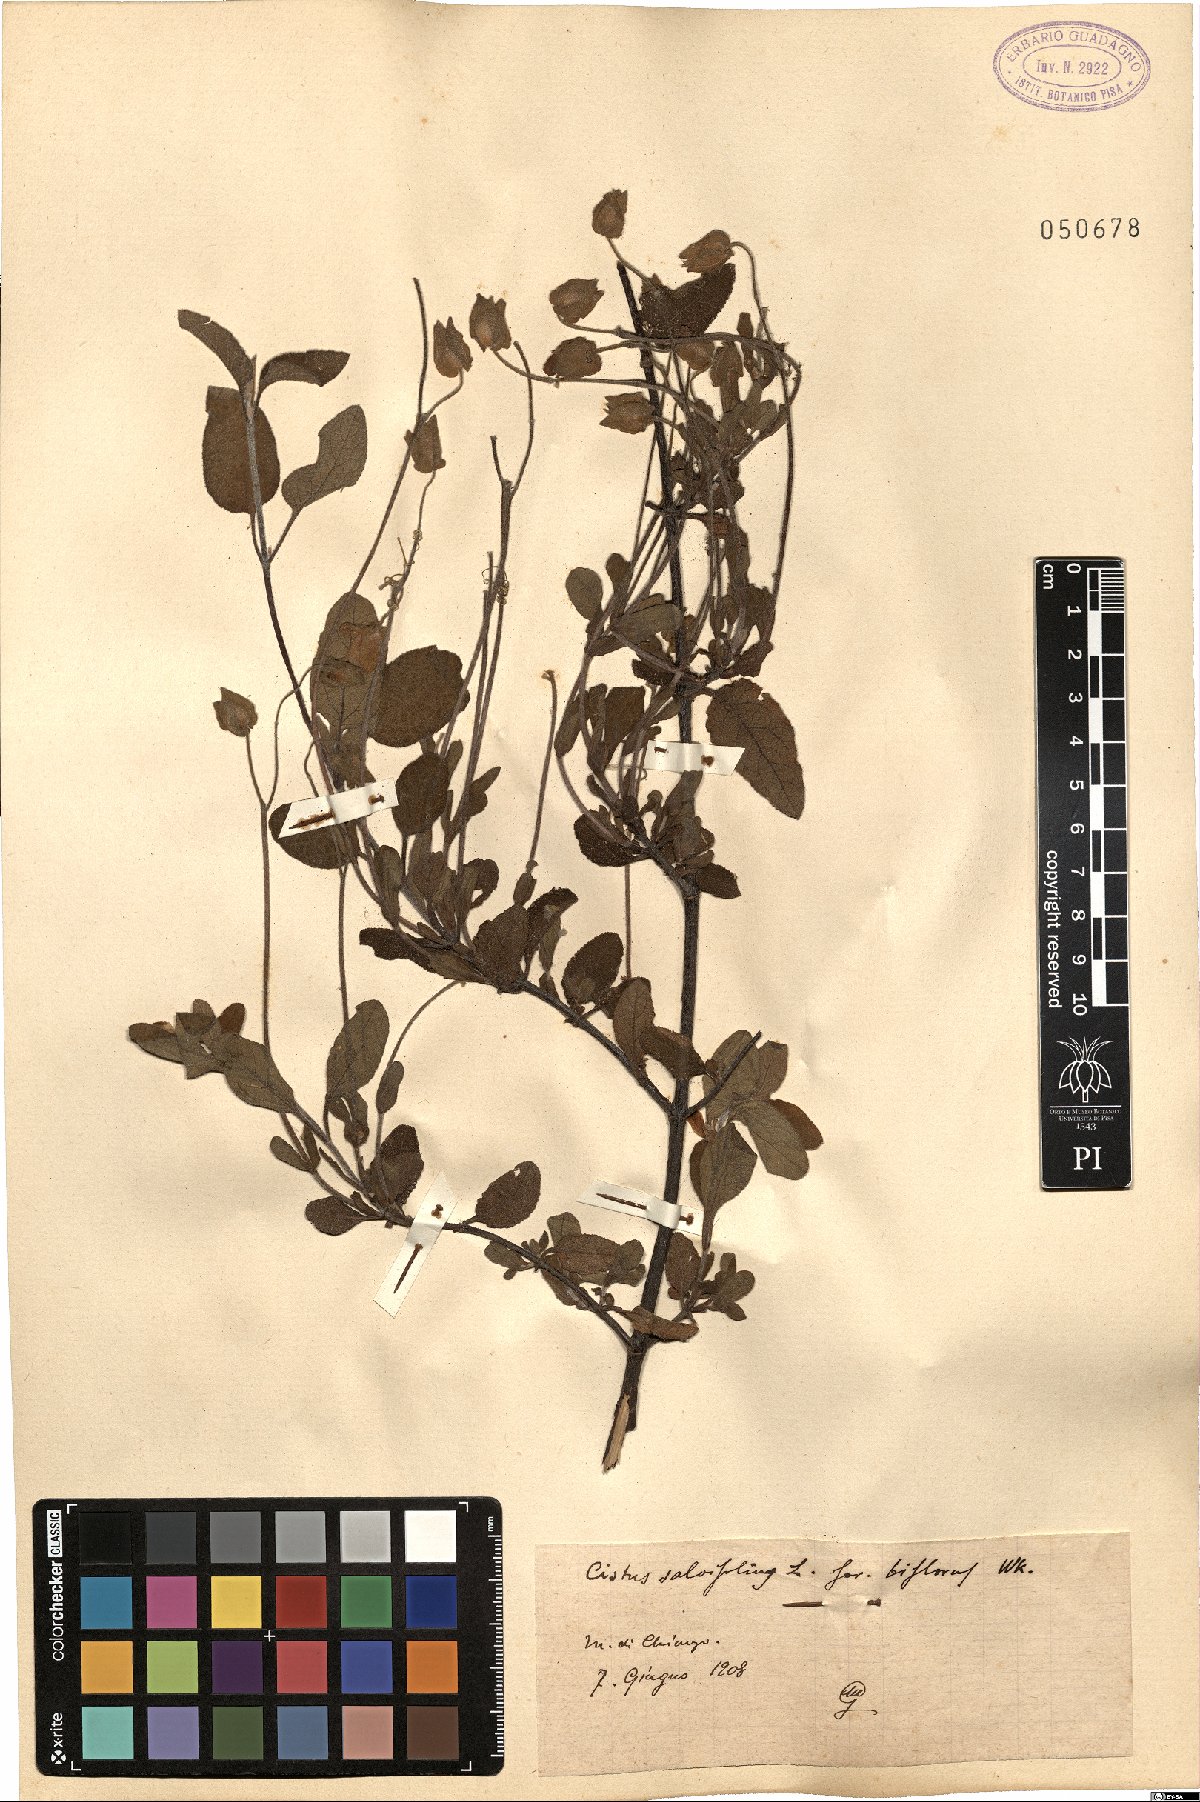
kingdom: Plantae
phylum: Tracheophyta
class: Magnoliopsida
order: Malvales
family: Cistaceae
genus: Cistus
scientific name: Cistus salviifolius
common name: Salvia cistus
